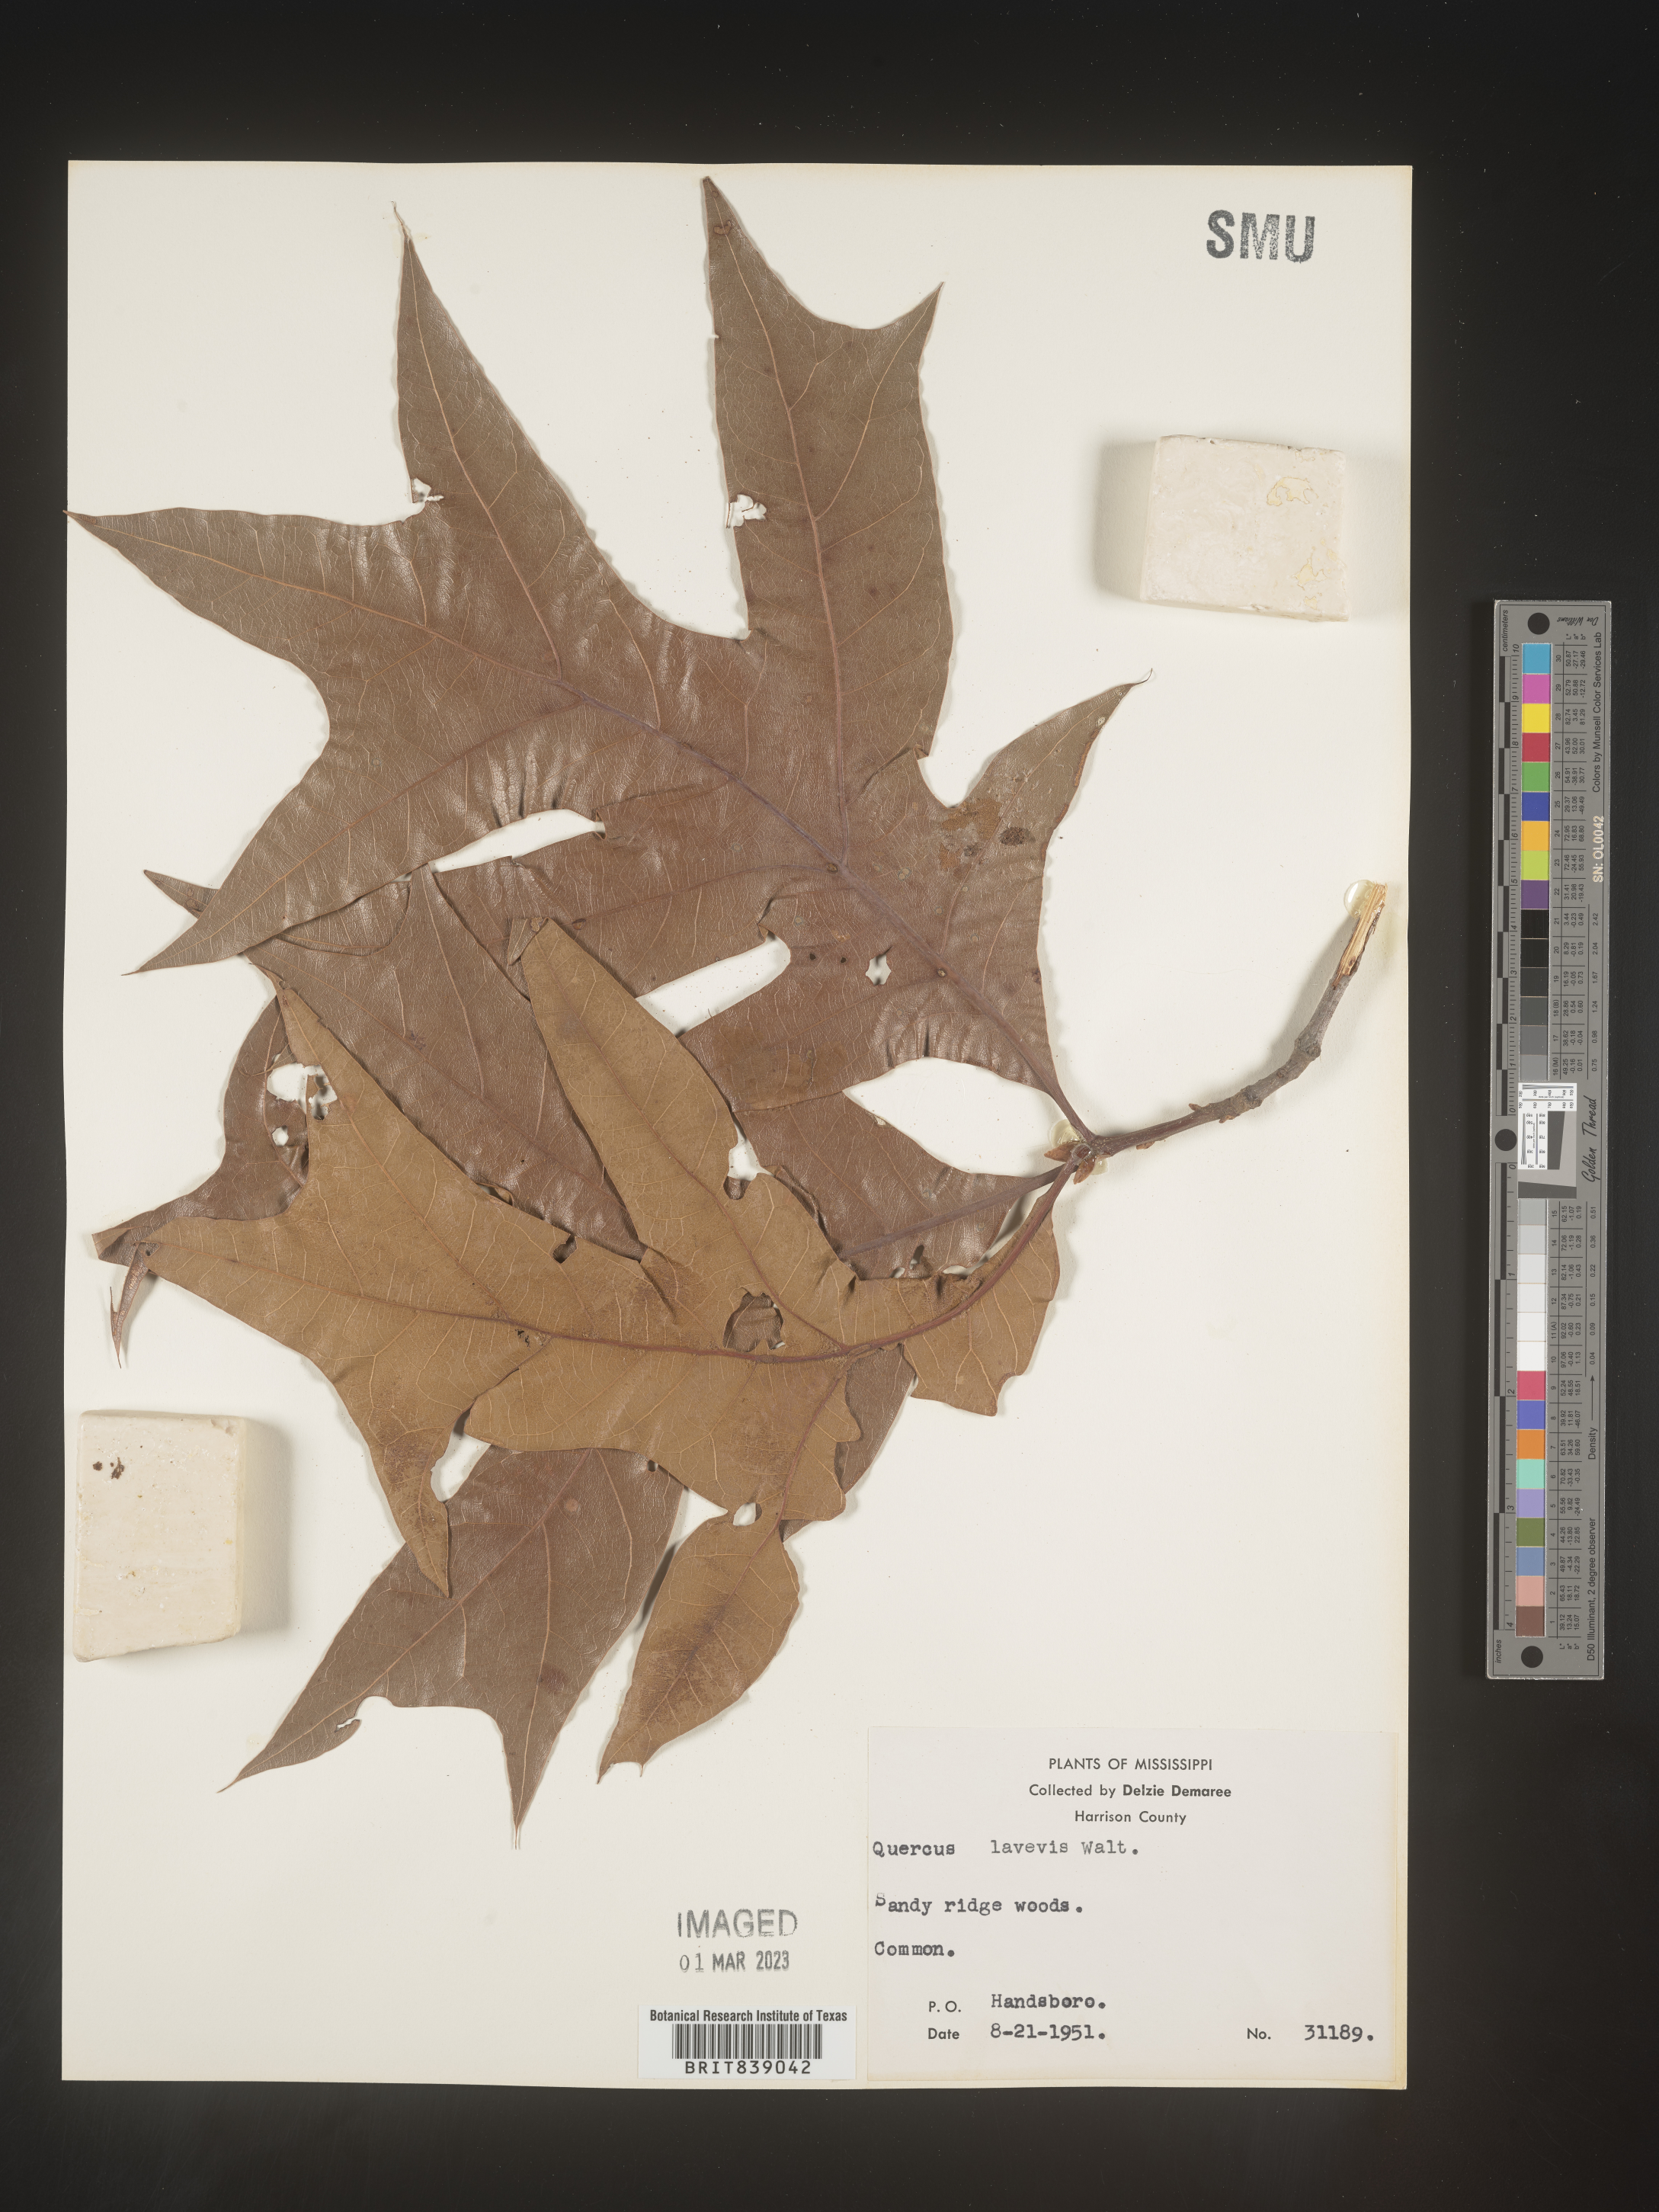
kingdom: Plantae
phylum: Tracheophyta
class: Magnoliopsida
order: Fagales
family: Fagaceae
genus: Quercus
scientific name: Quercus laevis
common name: Turkey oak
